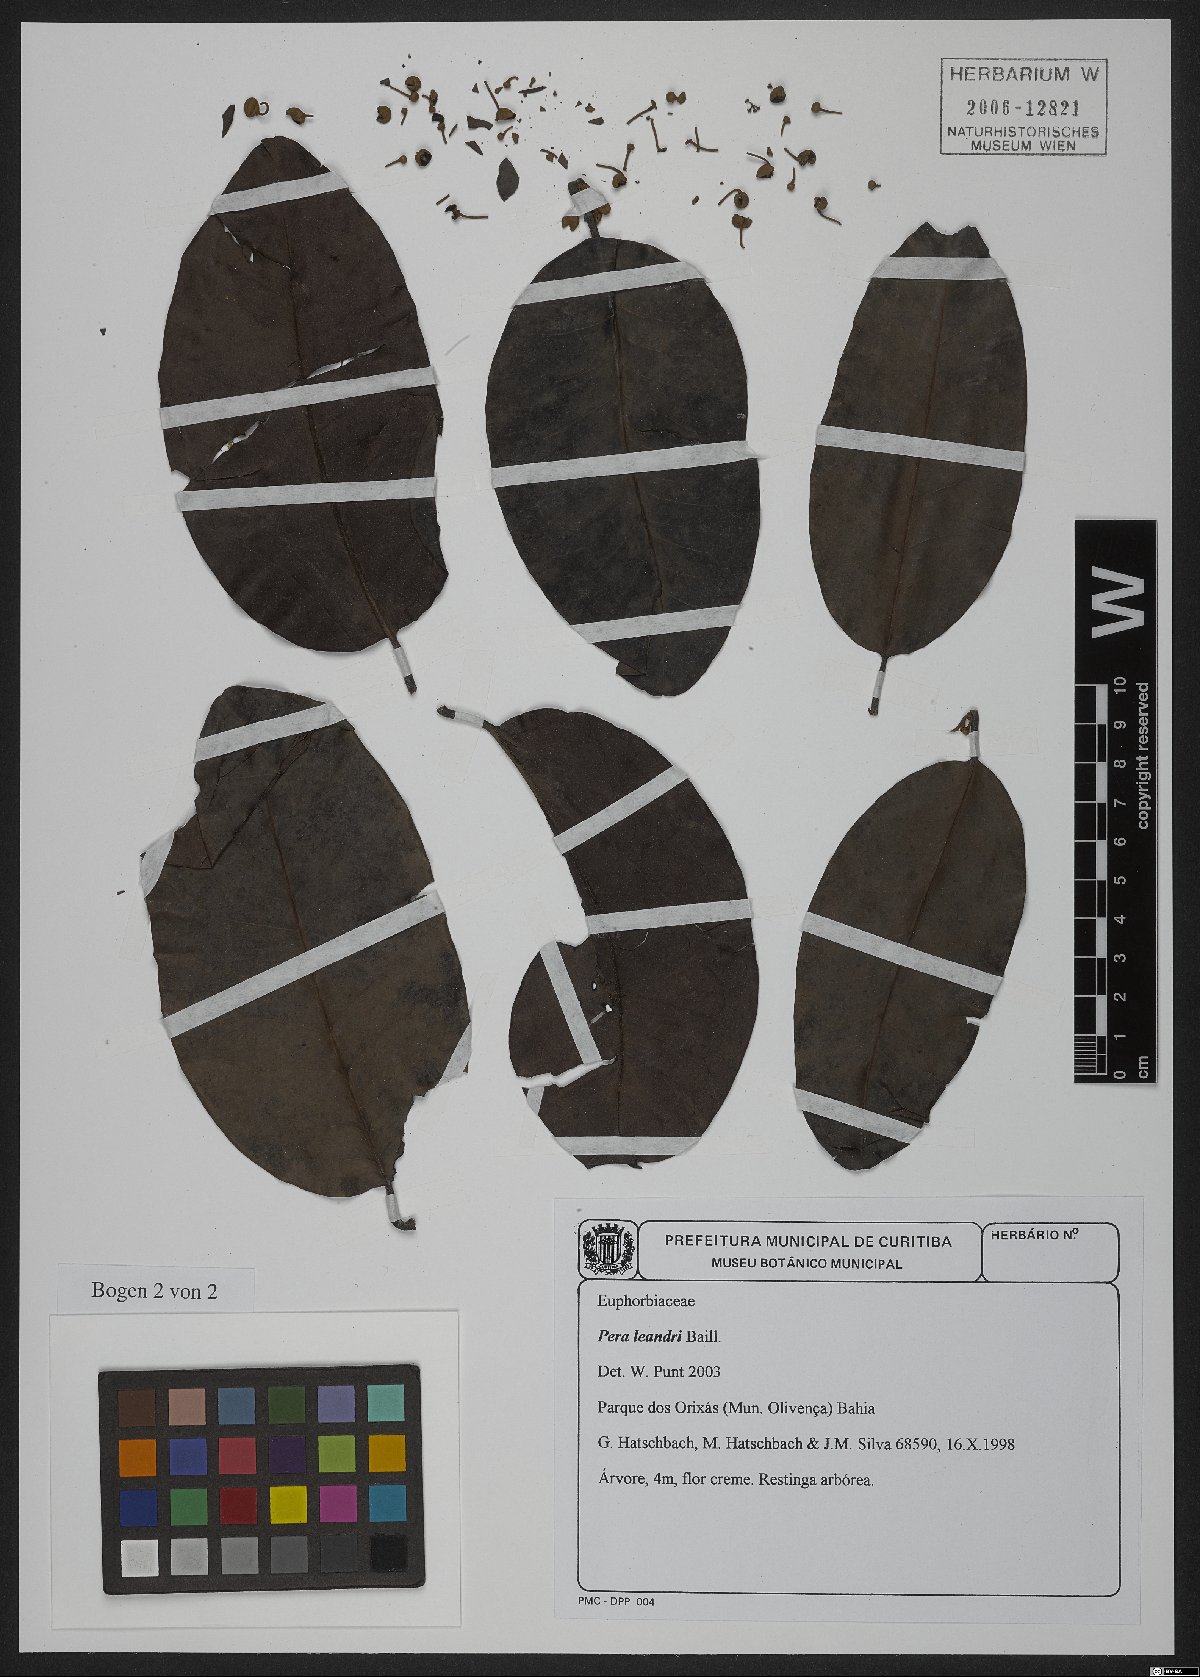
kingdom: Plantae
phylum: Tracheophyta
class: Magnoliopsida
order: Malpighiales
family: Peraceae
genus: Pera
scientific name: Pera heteranthera
